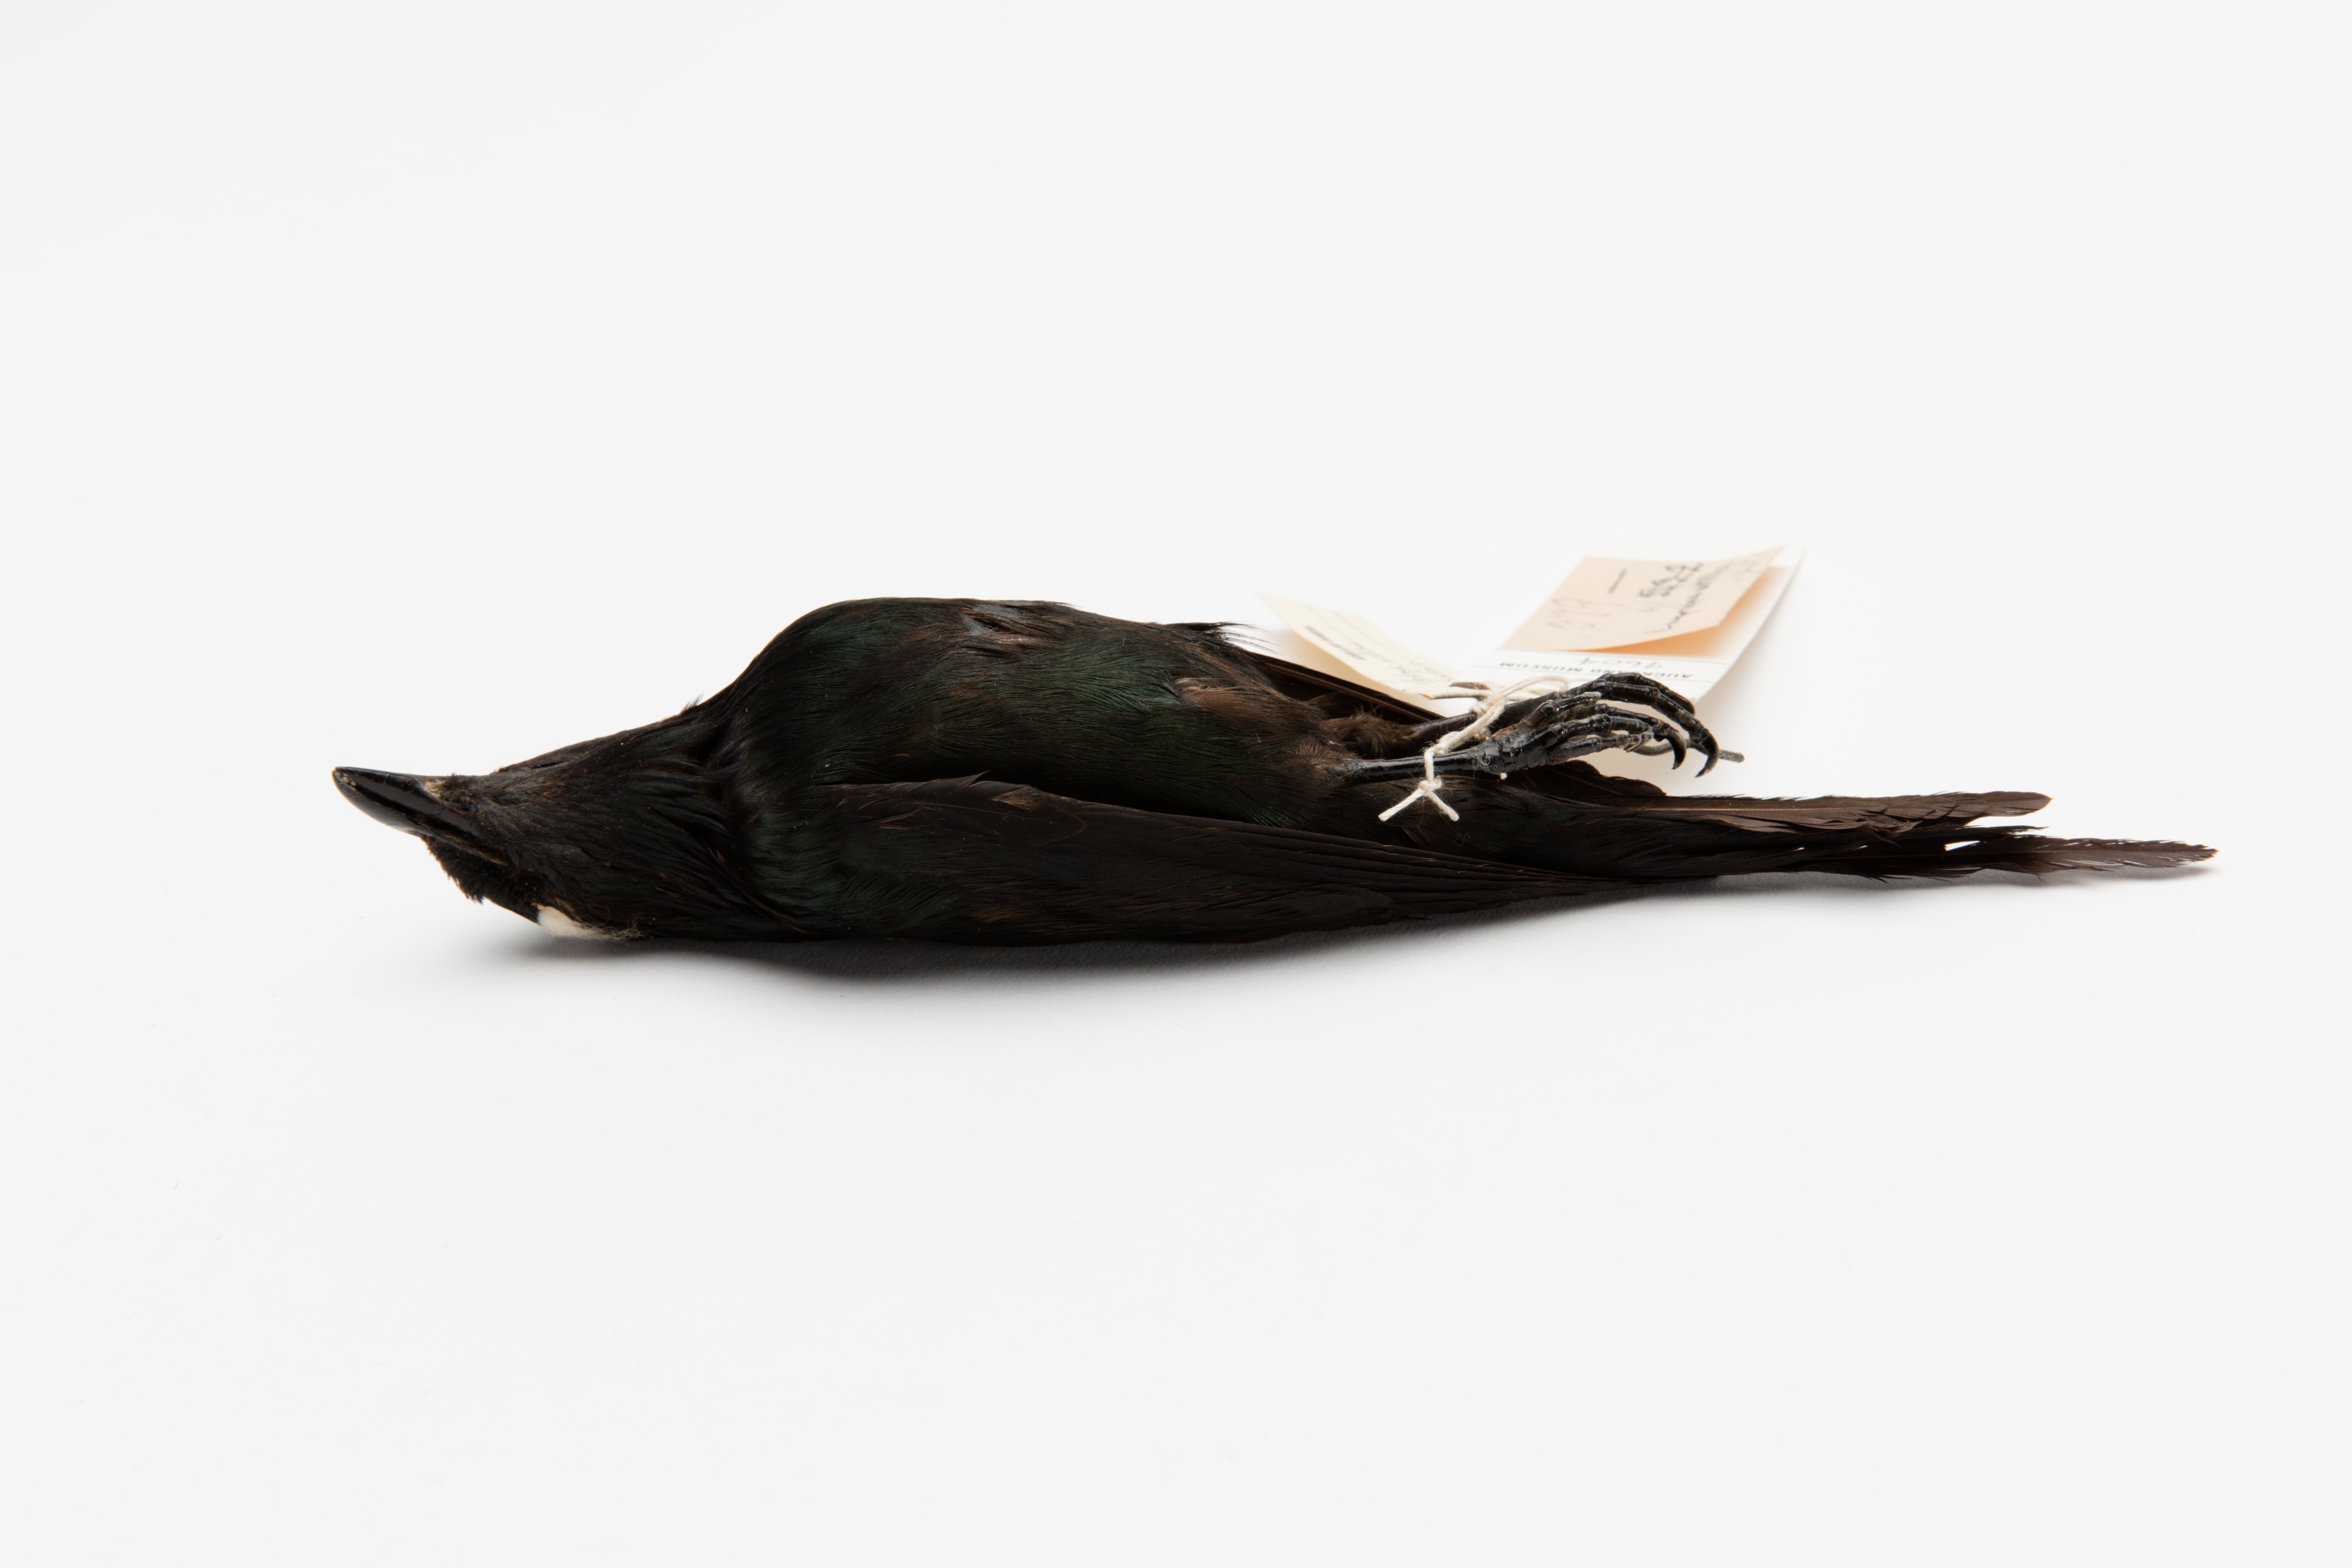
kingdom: Animalia
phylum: Chordata
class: Aves
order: Passeriformes
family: Sturnidae
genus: Aplonis
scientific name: Aplonis metallica
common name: Metallic starling
